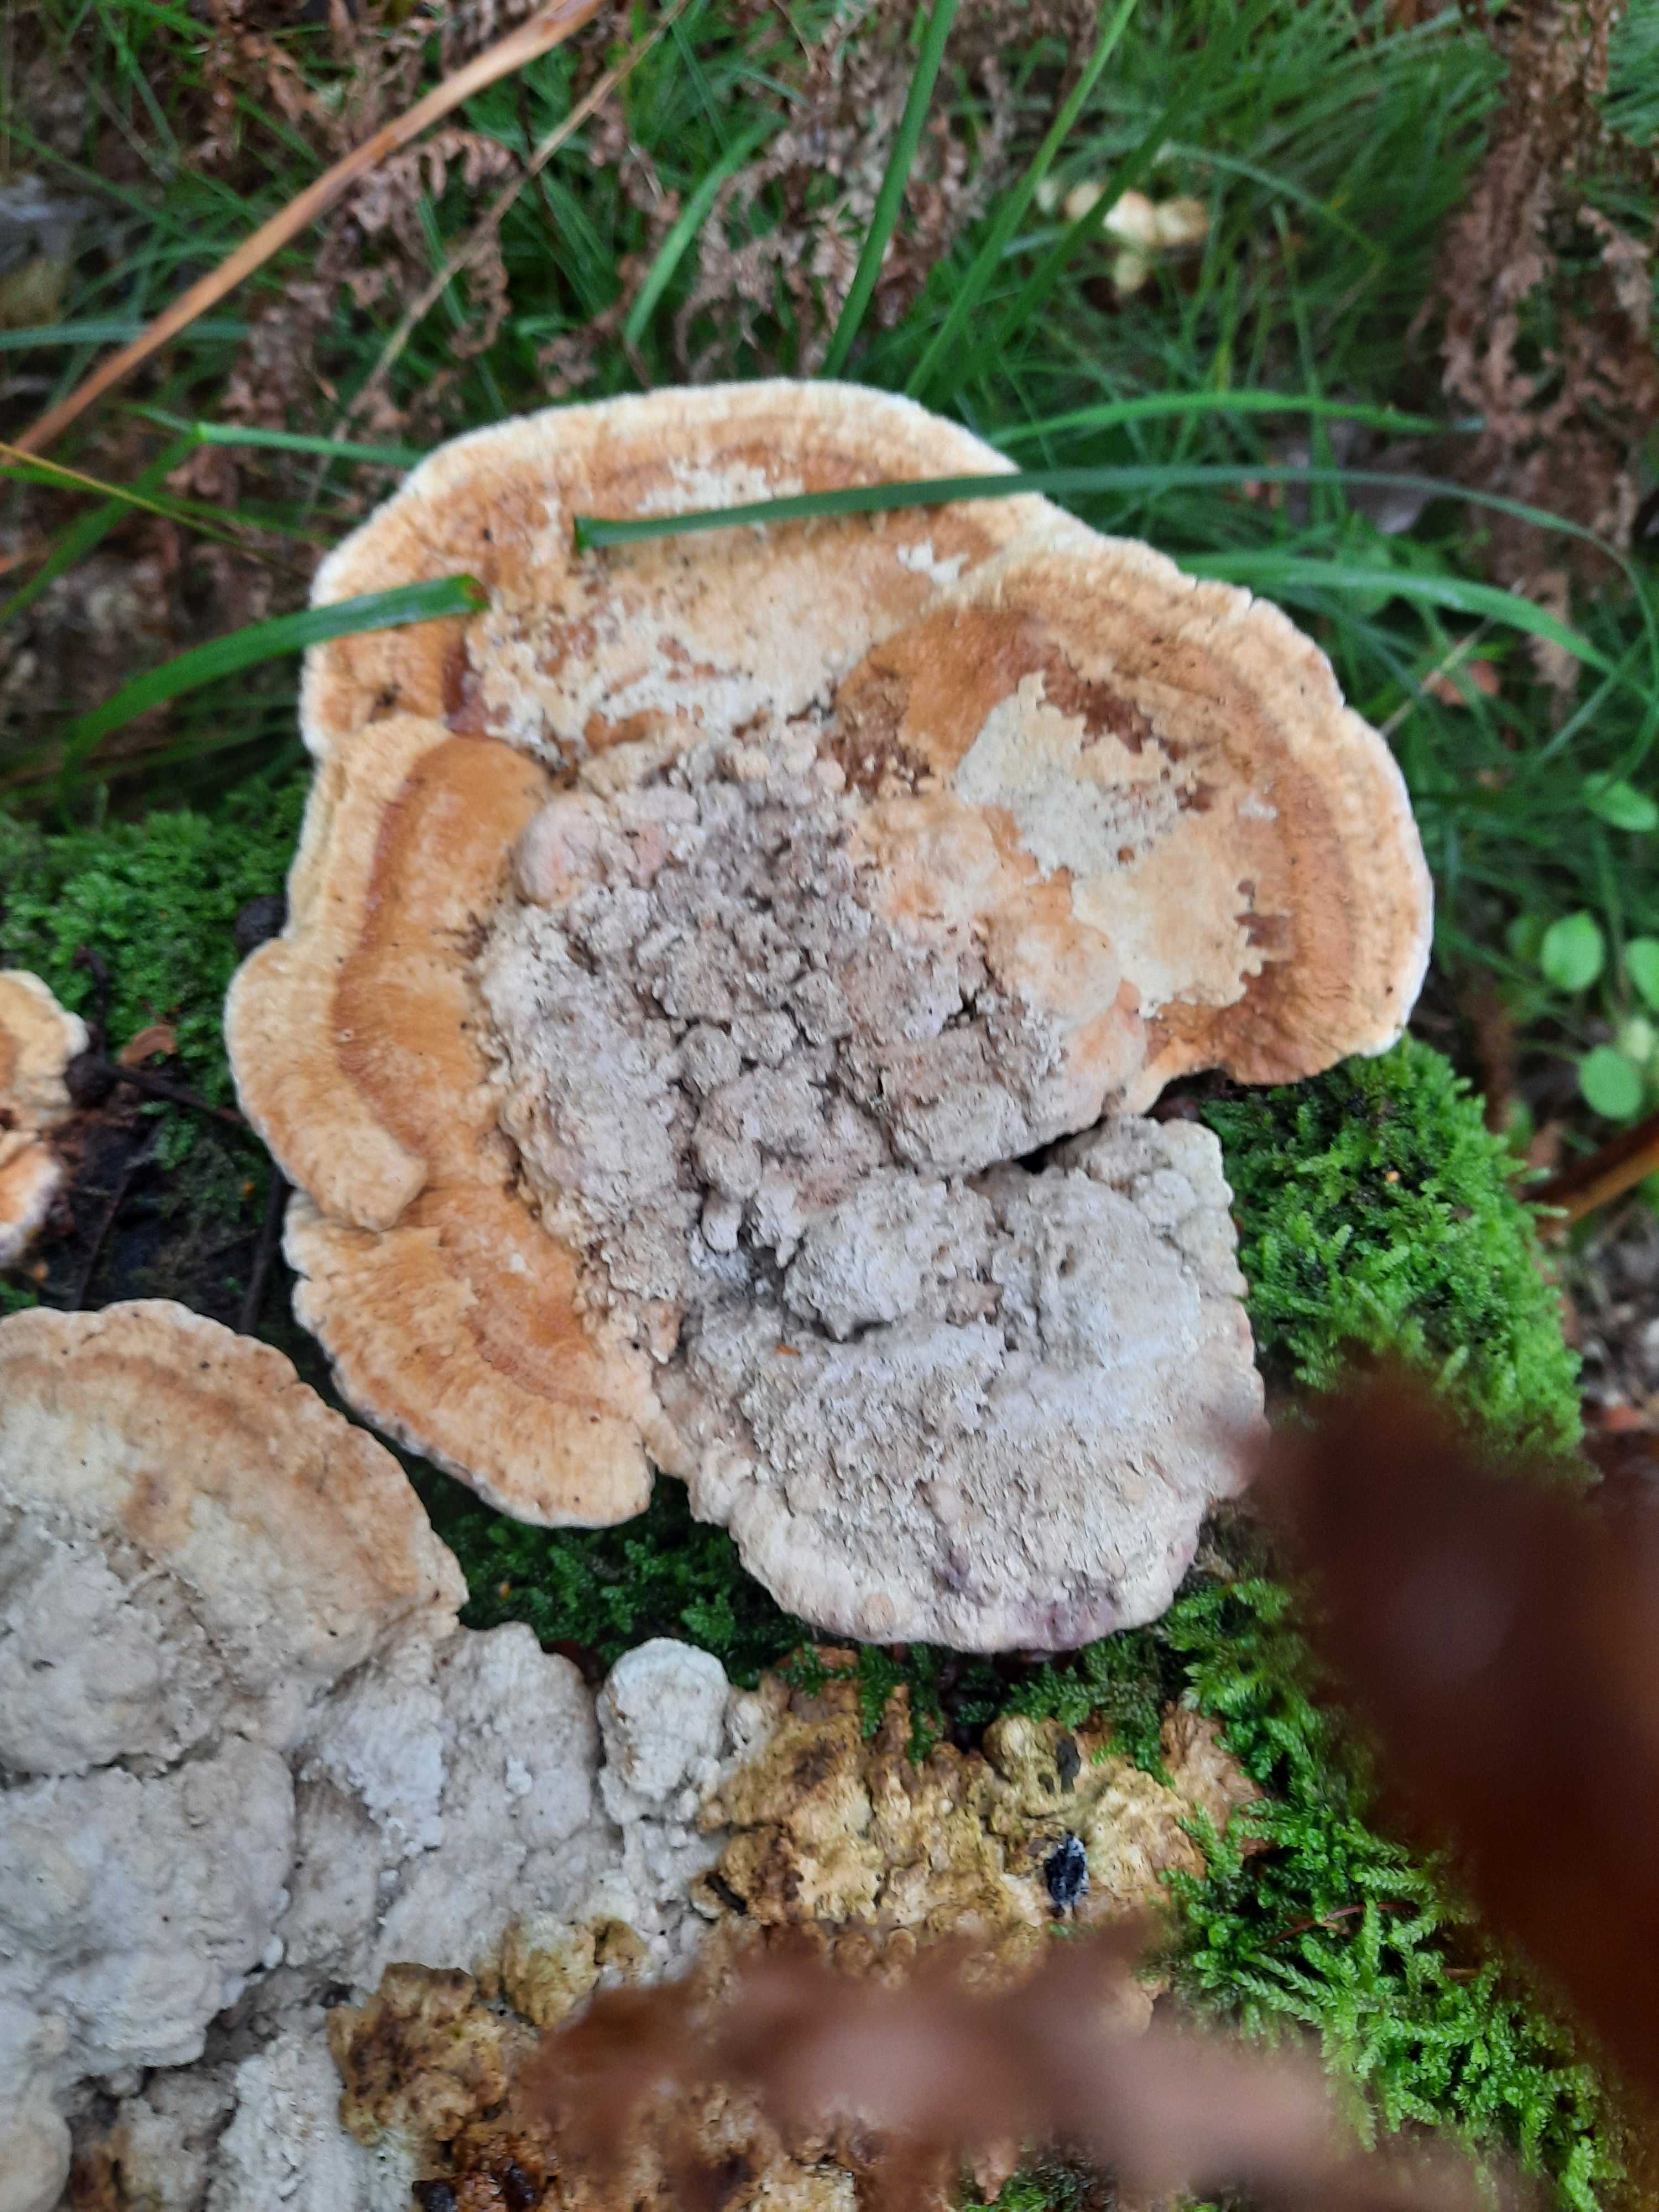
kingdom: Fungi
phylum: Basidiomycota
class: Agaricomycetes
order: Polyporales
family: Fomitopsidaceae
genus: Daedalea
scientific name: Daedalea quercina
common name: ege-labyrintsvamp
